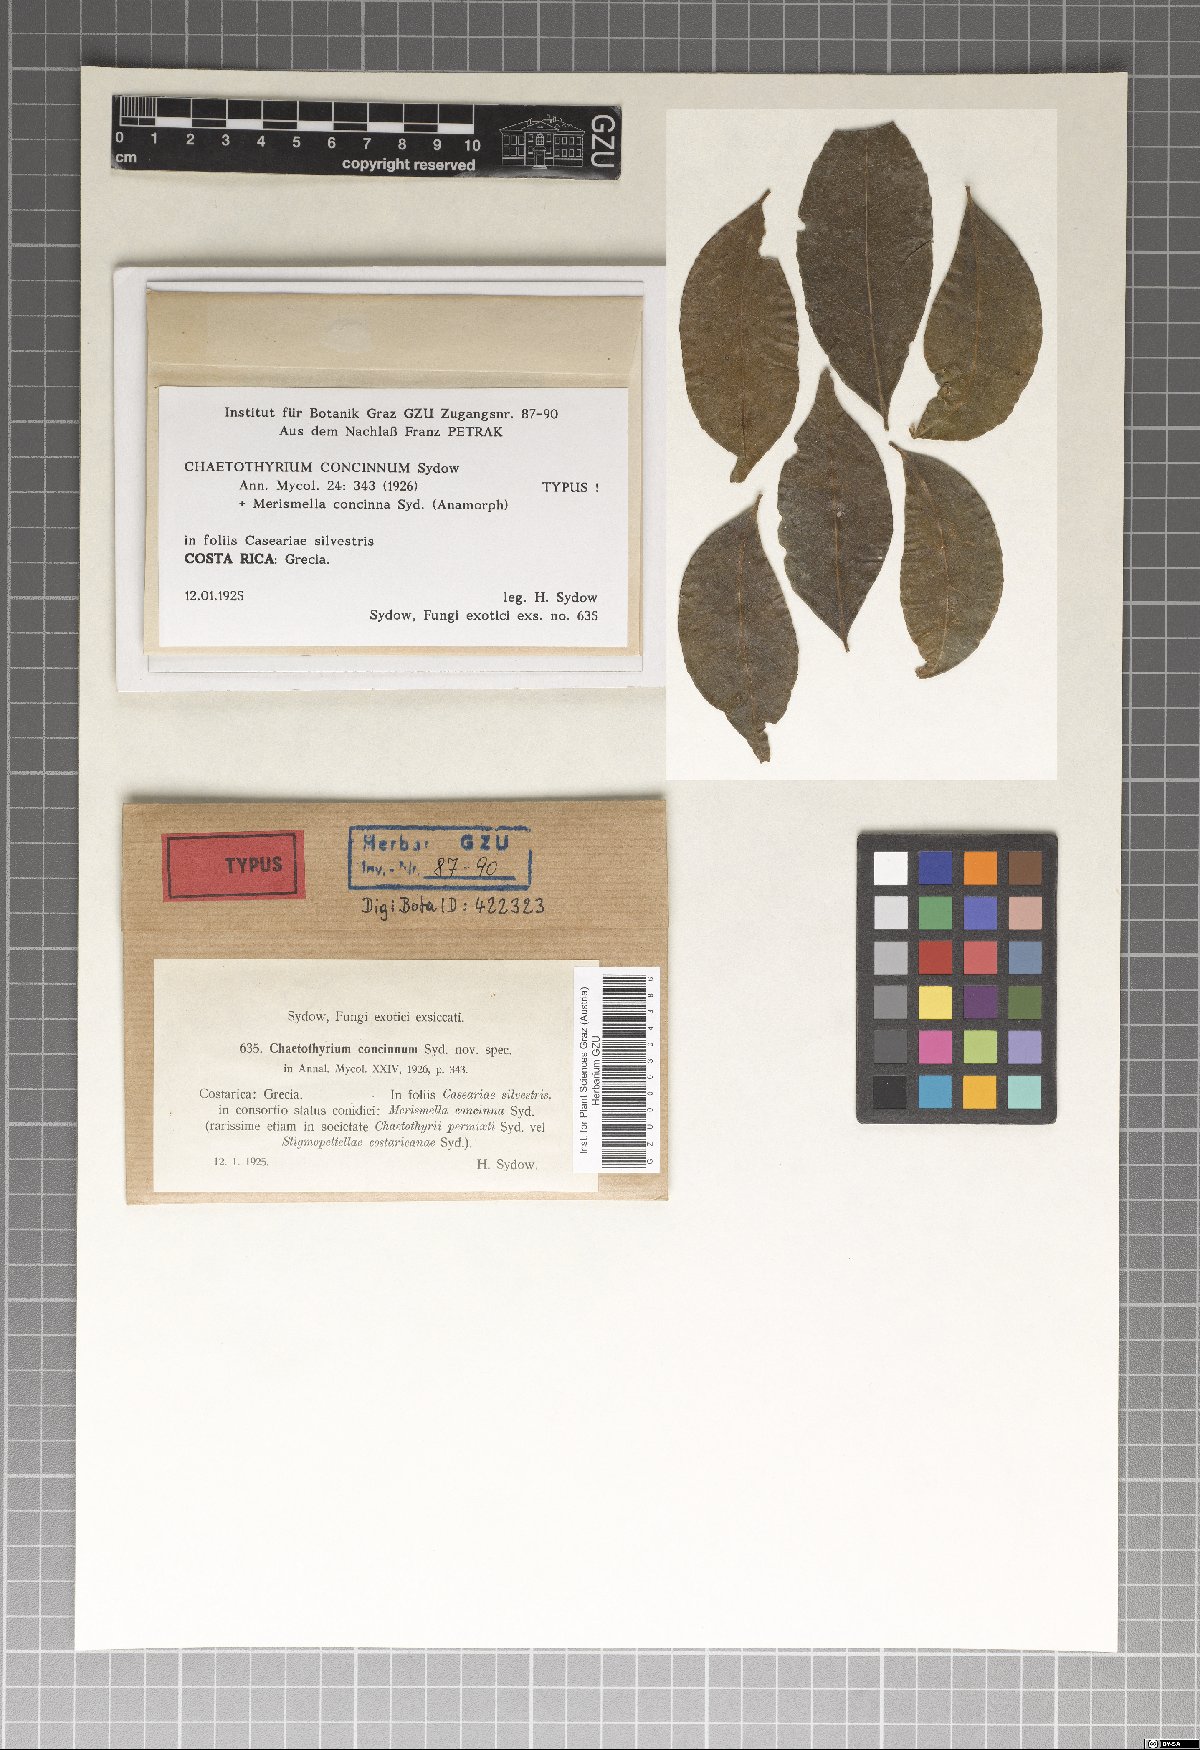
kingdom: Fungi
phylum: Ascomycota
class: Eurotiomycetes
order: Chaetothyriales
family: Chaetothyriaceae
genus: Chaetothyrium
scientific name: Chaetothyrium concinnum
